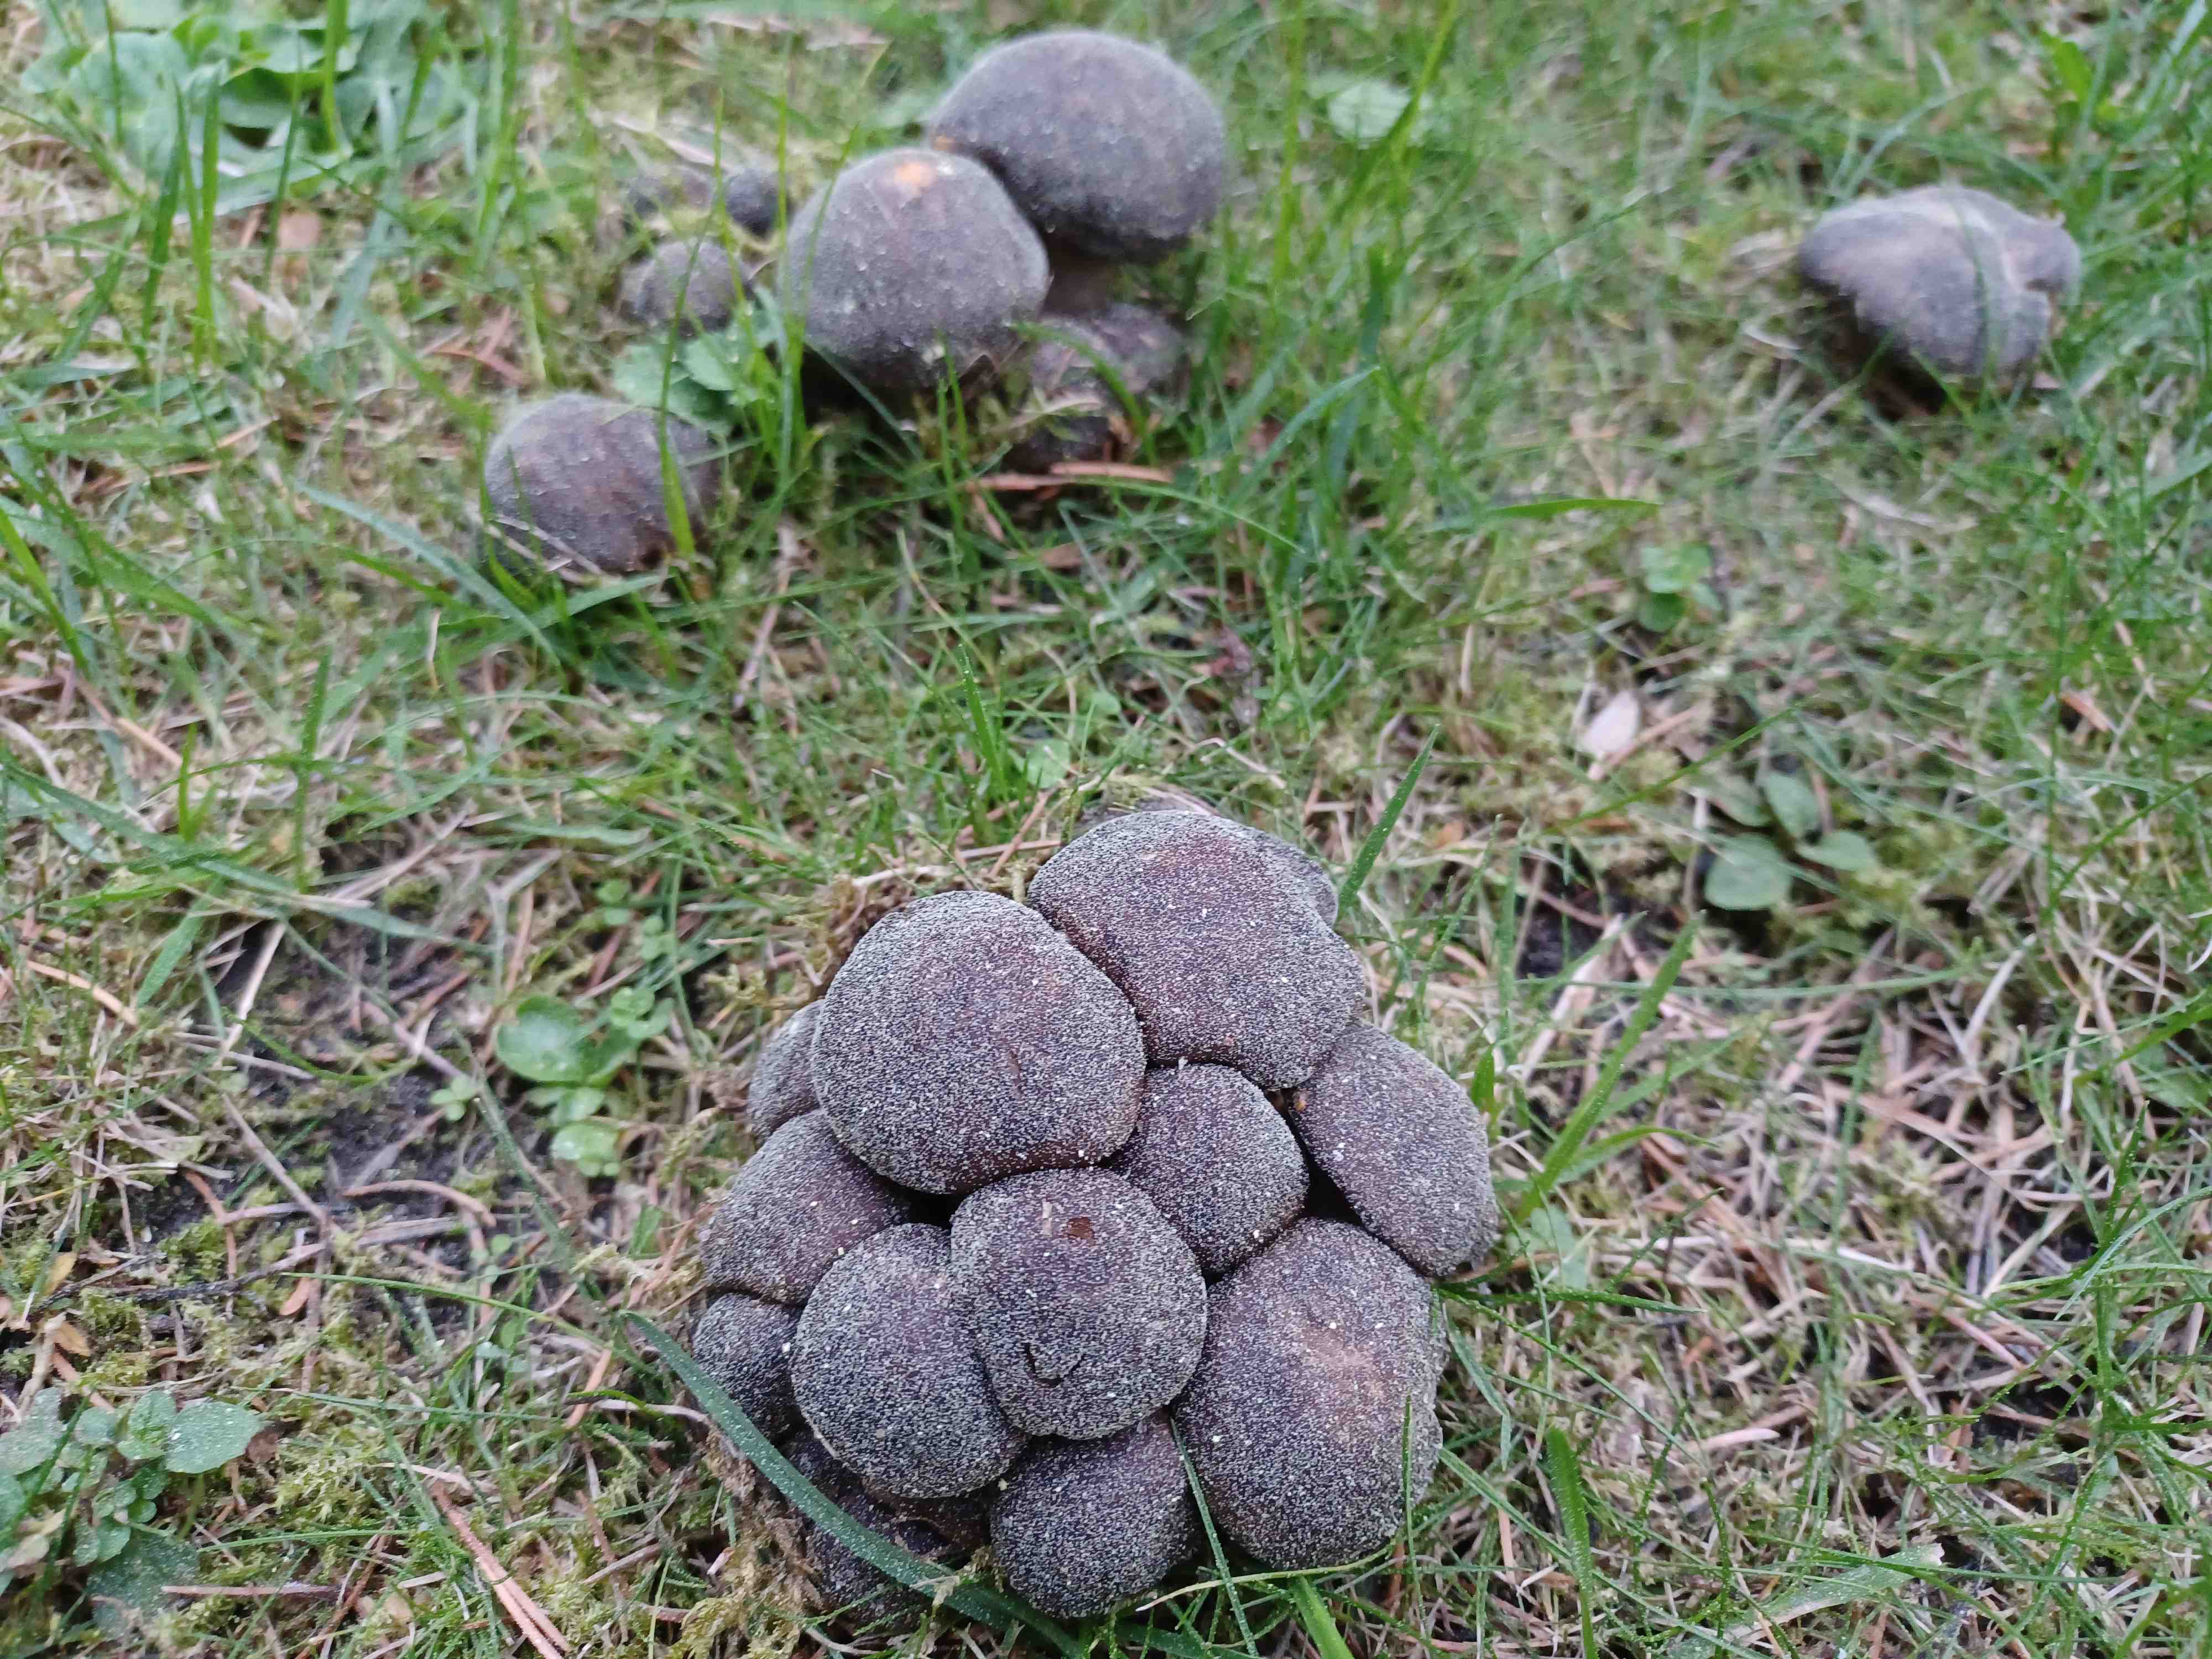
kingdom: Fungi
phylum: Basidiomycota
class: Agaricomycetes
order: Agaricales
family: Lyophyllaceae
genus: Lyophyllum
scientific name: Lyophyllum
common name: gråblad
